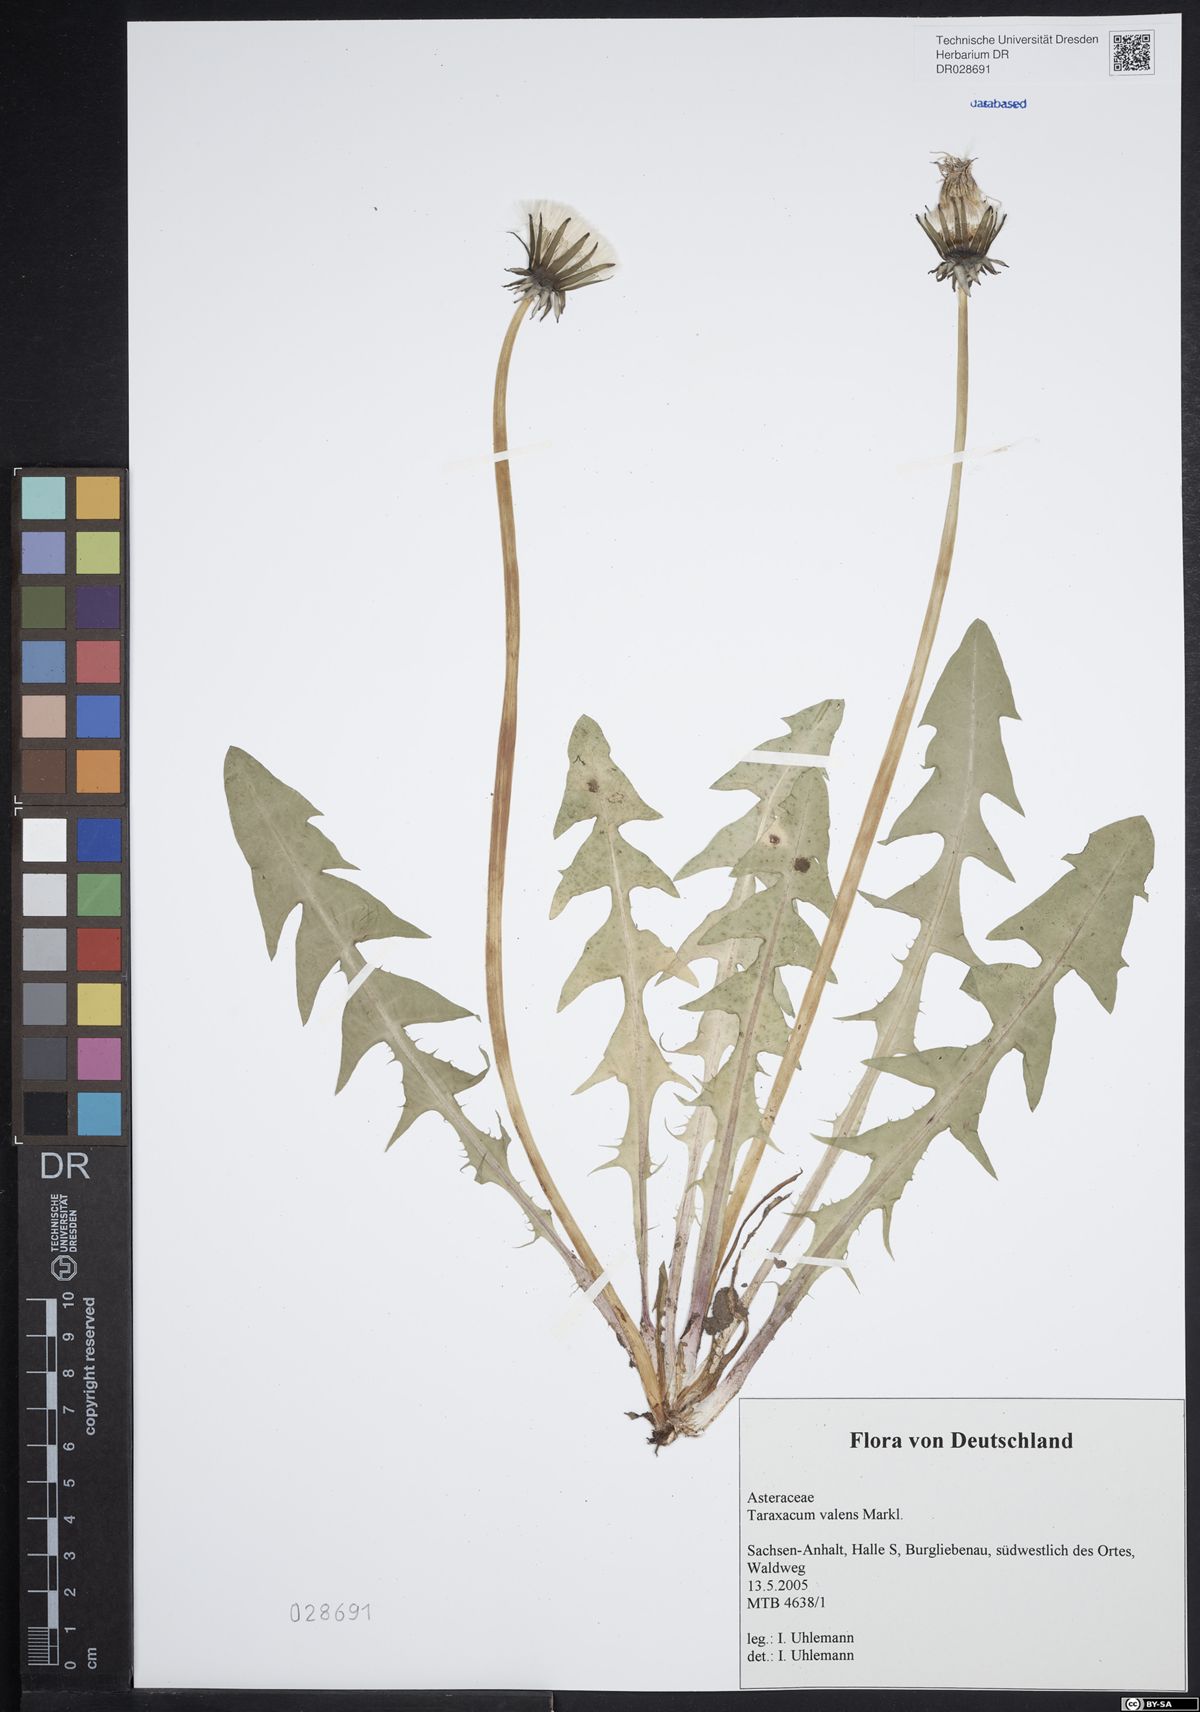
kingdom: Plantae
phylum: Tracheophyta
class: Magnoliopsida
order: Asterales
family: Asteraceae
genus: Taraxacum
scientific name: Taraxacum valens
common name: Reflexed-bracted dandelion
